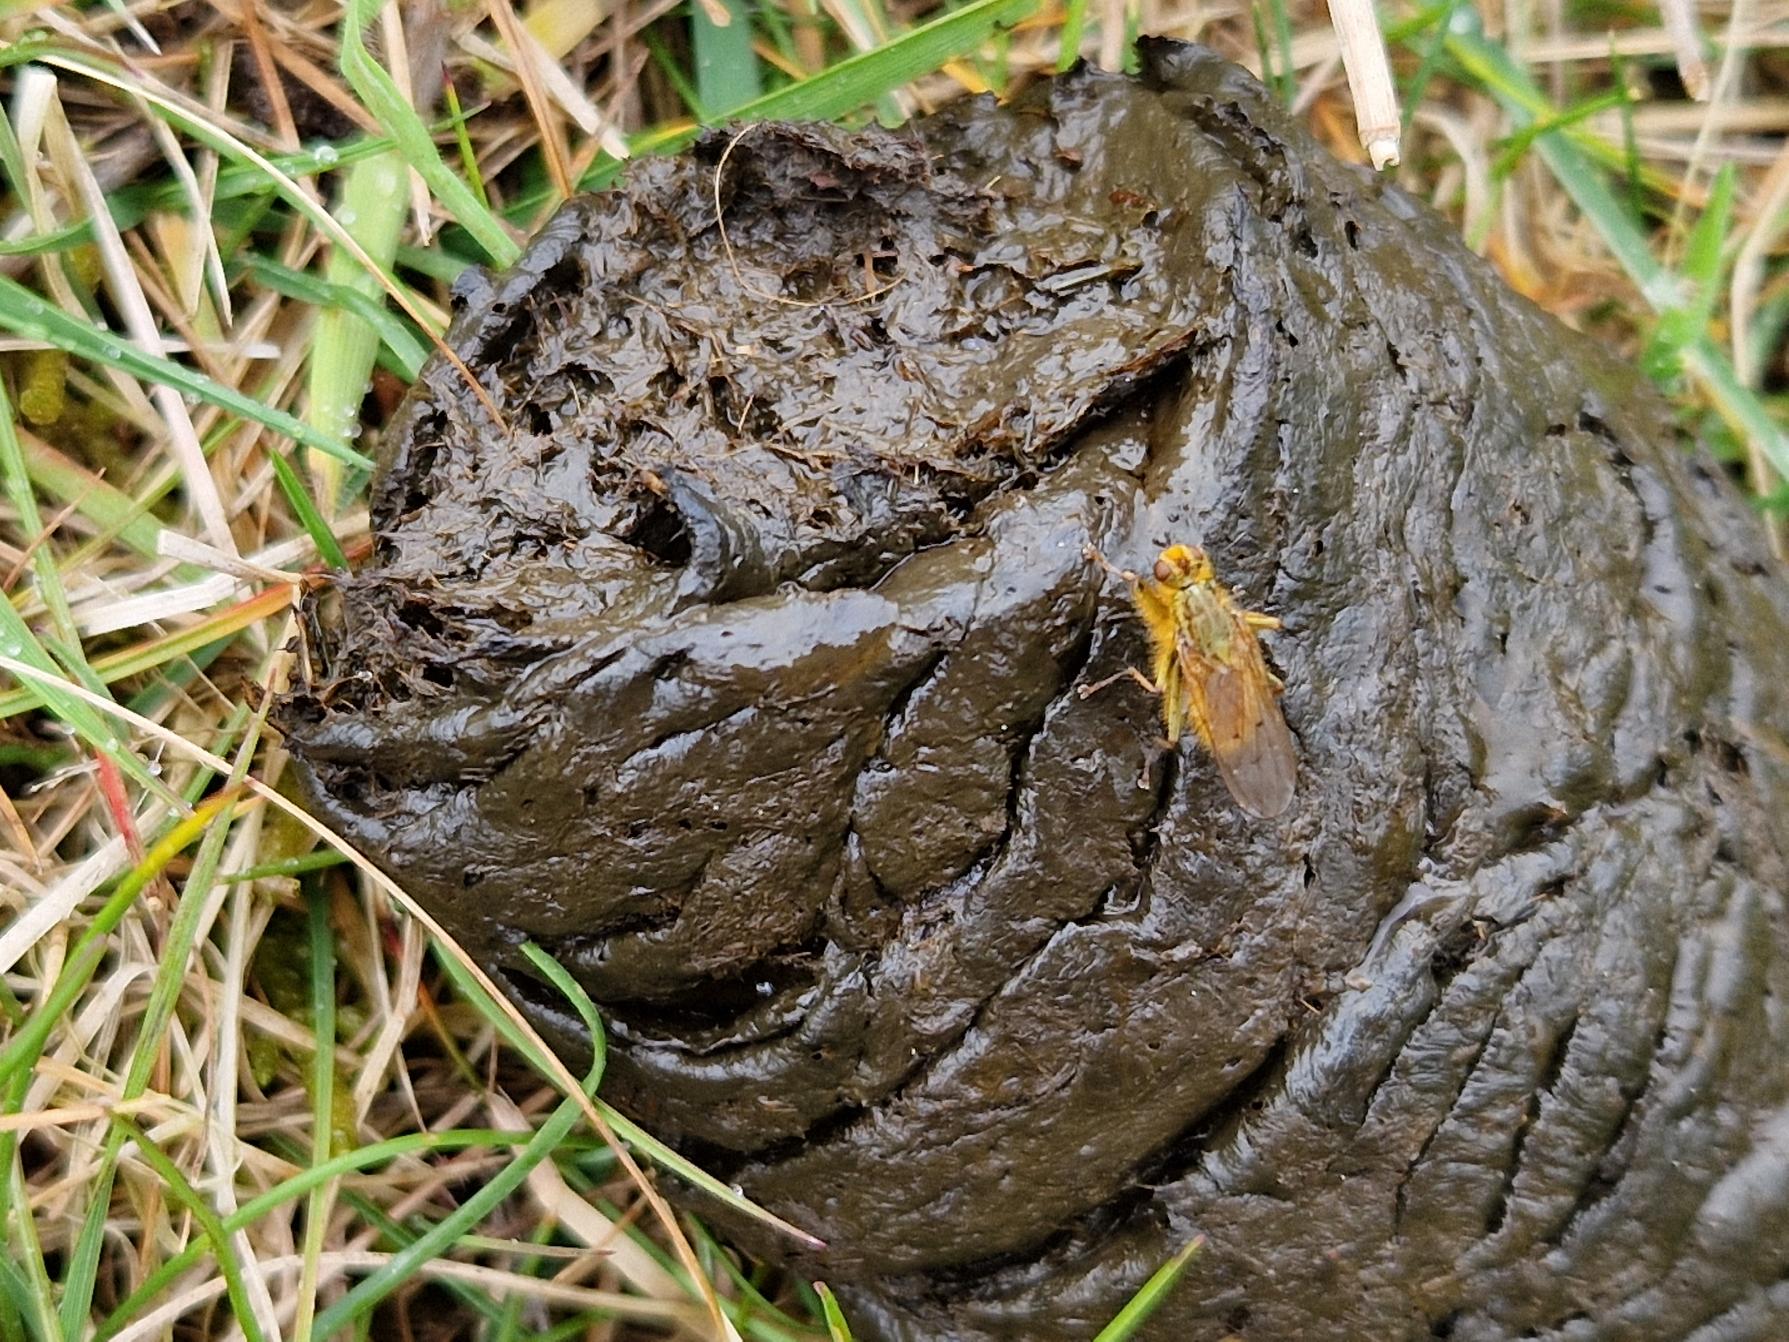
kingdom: Animalia
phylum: Arthropoda
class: Insecta
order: Diptera
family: Scathophagidae
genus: Scathophaga
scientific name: Scathophaga stercoraria
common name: Almindelig gødningsflue
